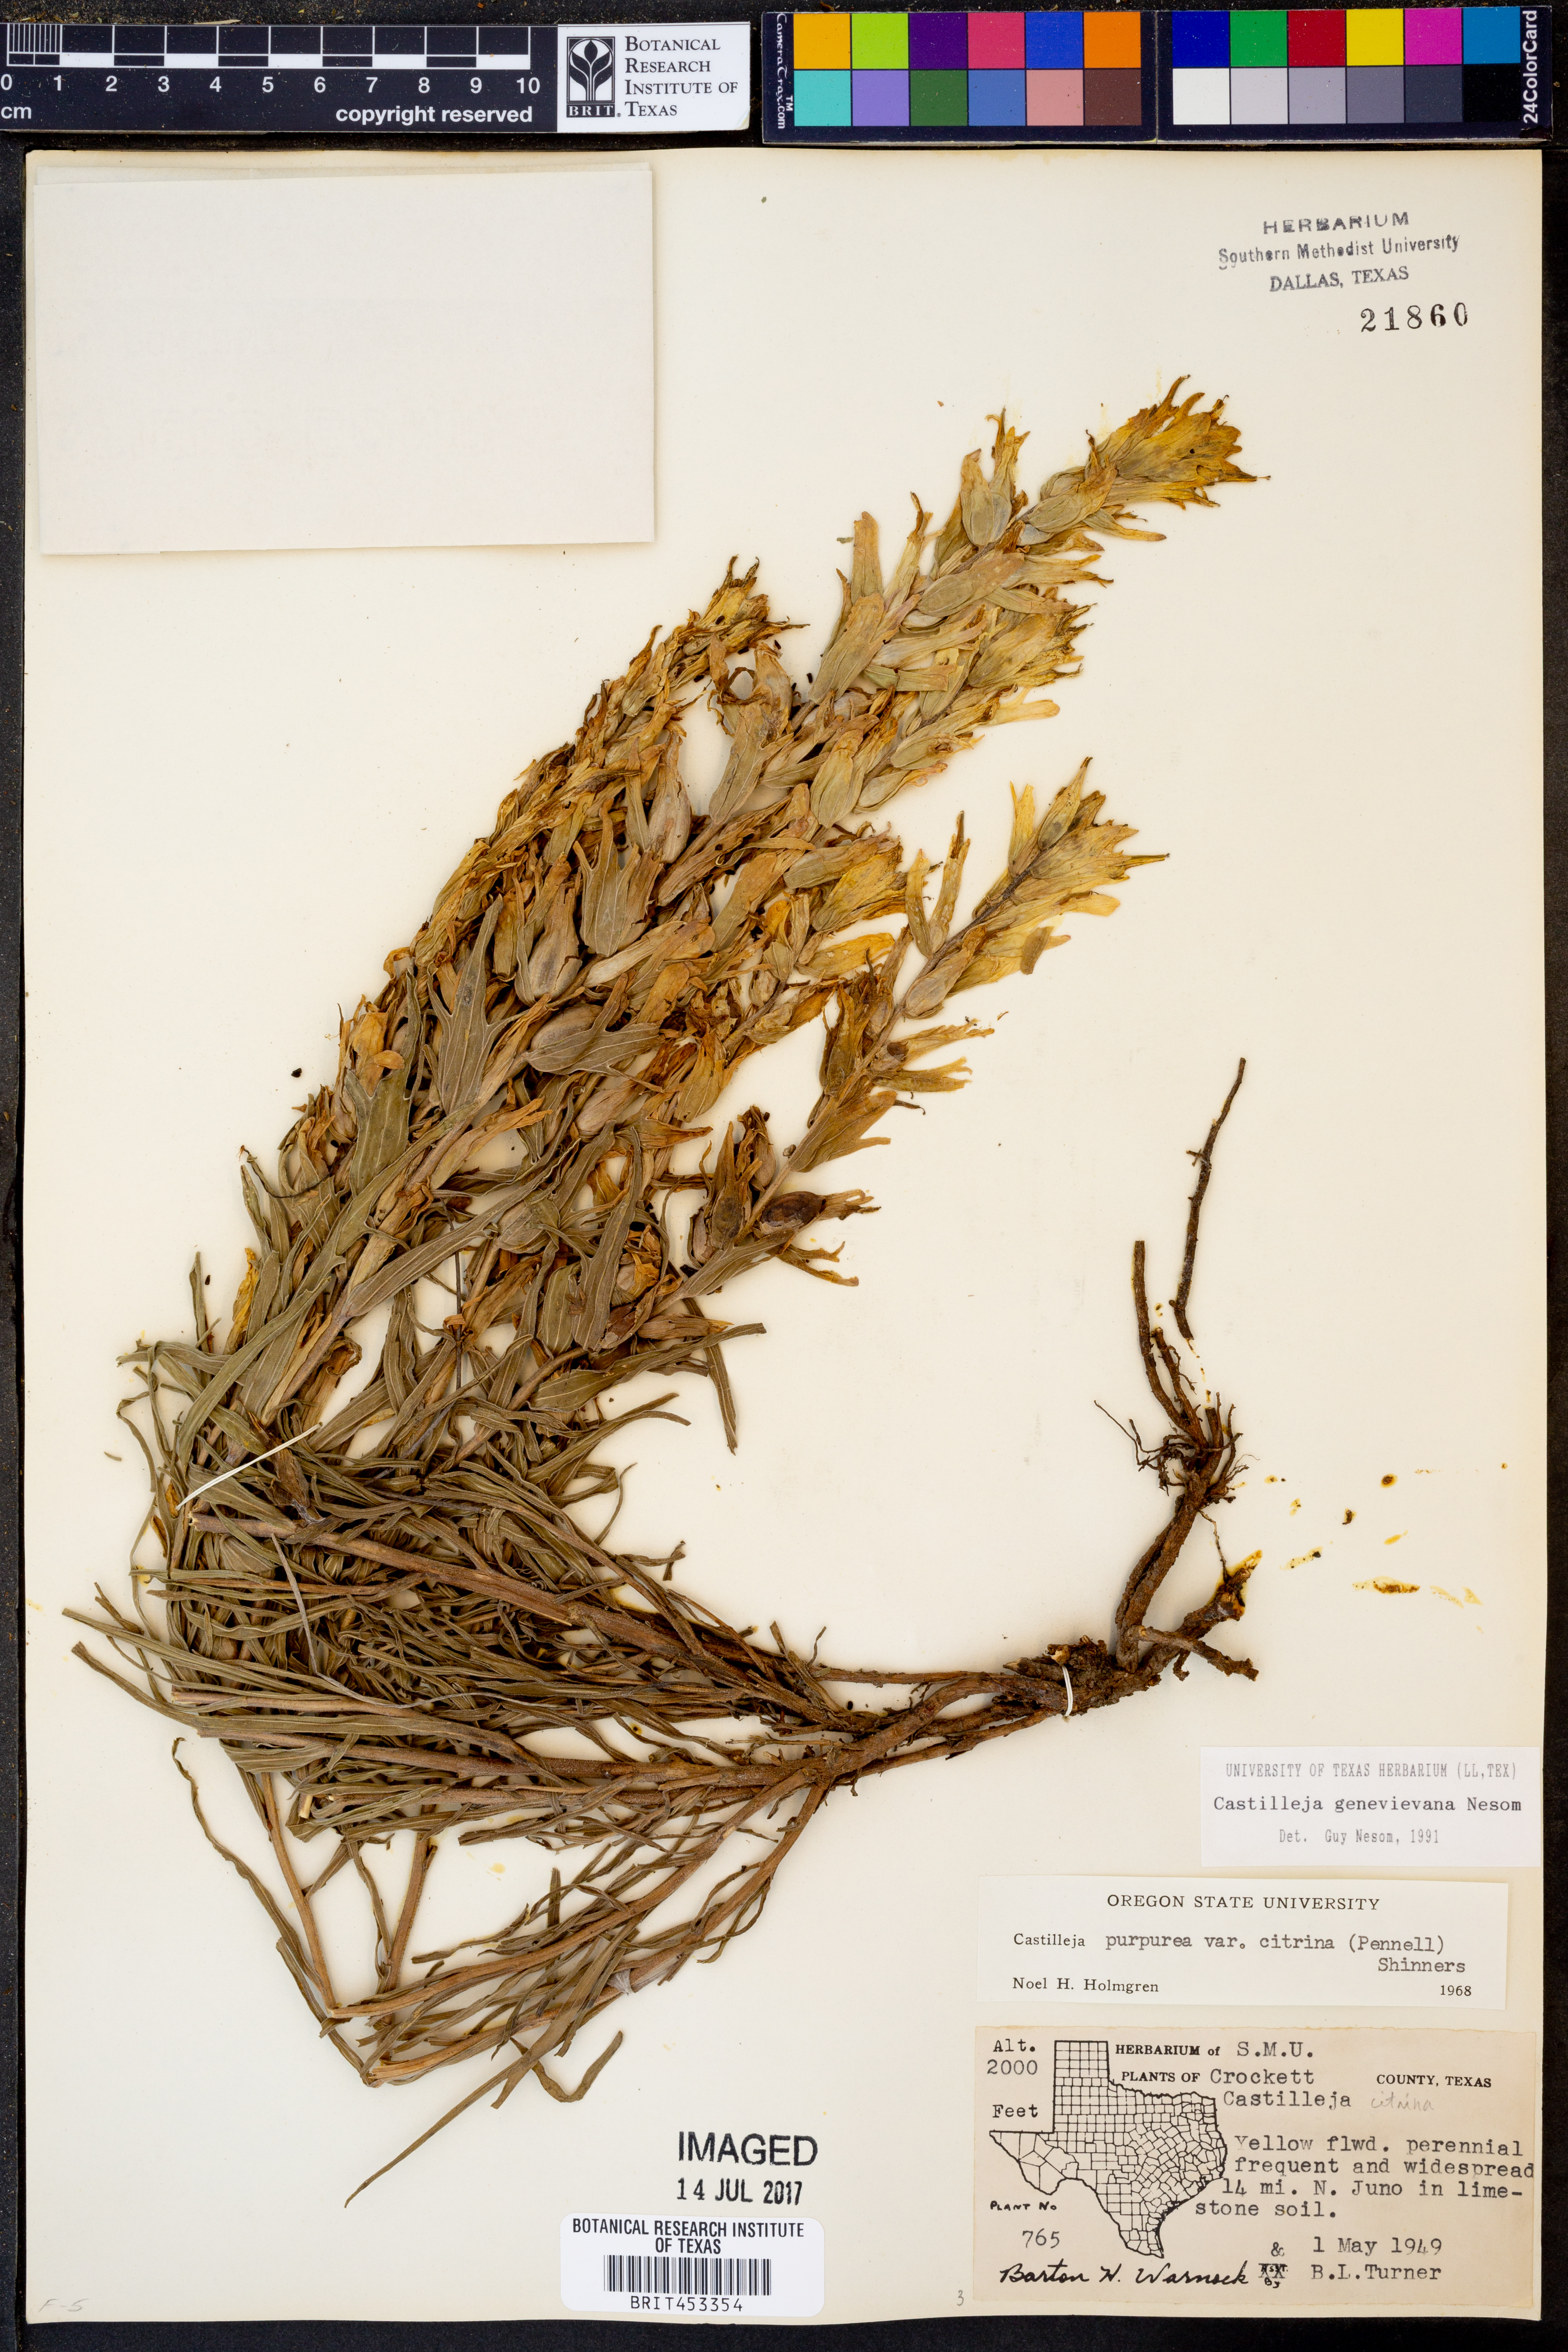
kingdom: Plantae
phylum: Tracheophyta
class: Magnoliopsida
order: Lamiales
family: Orobanchaceae
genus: Castilleja
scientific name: Castilleja genevievana
